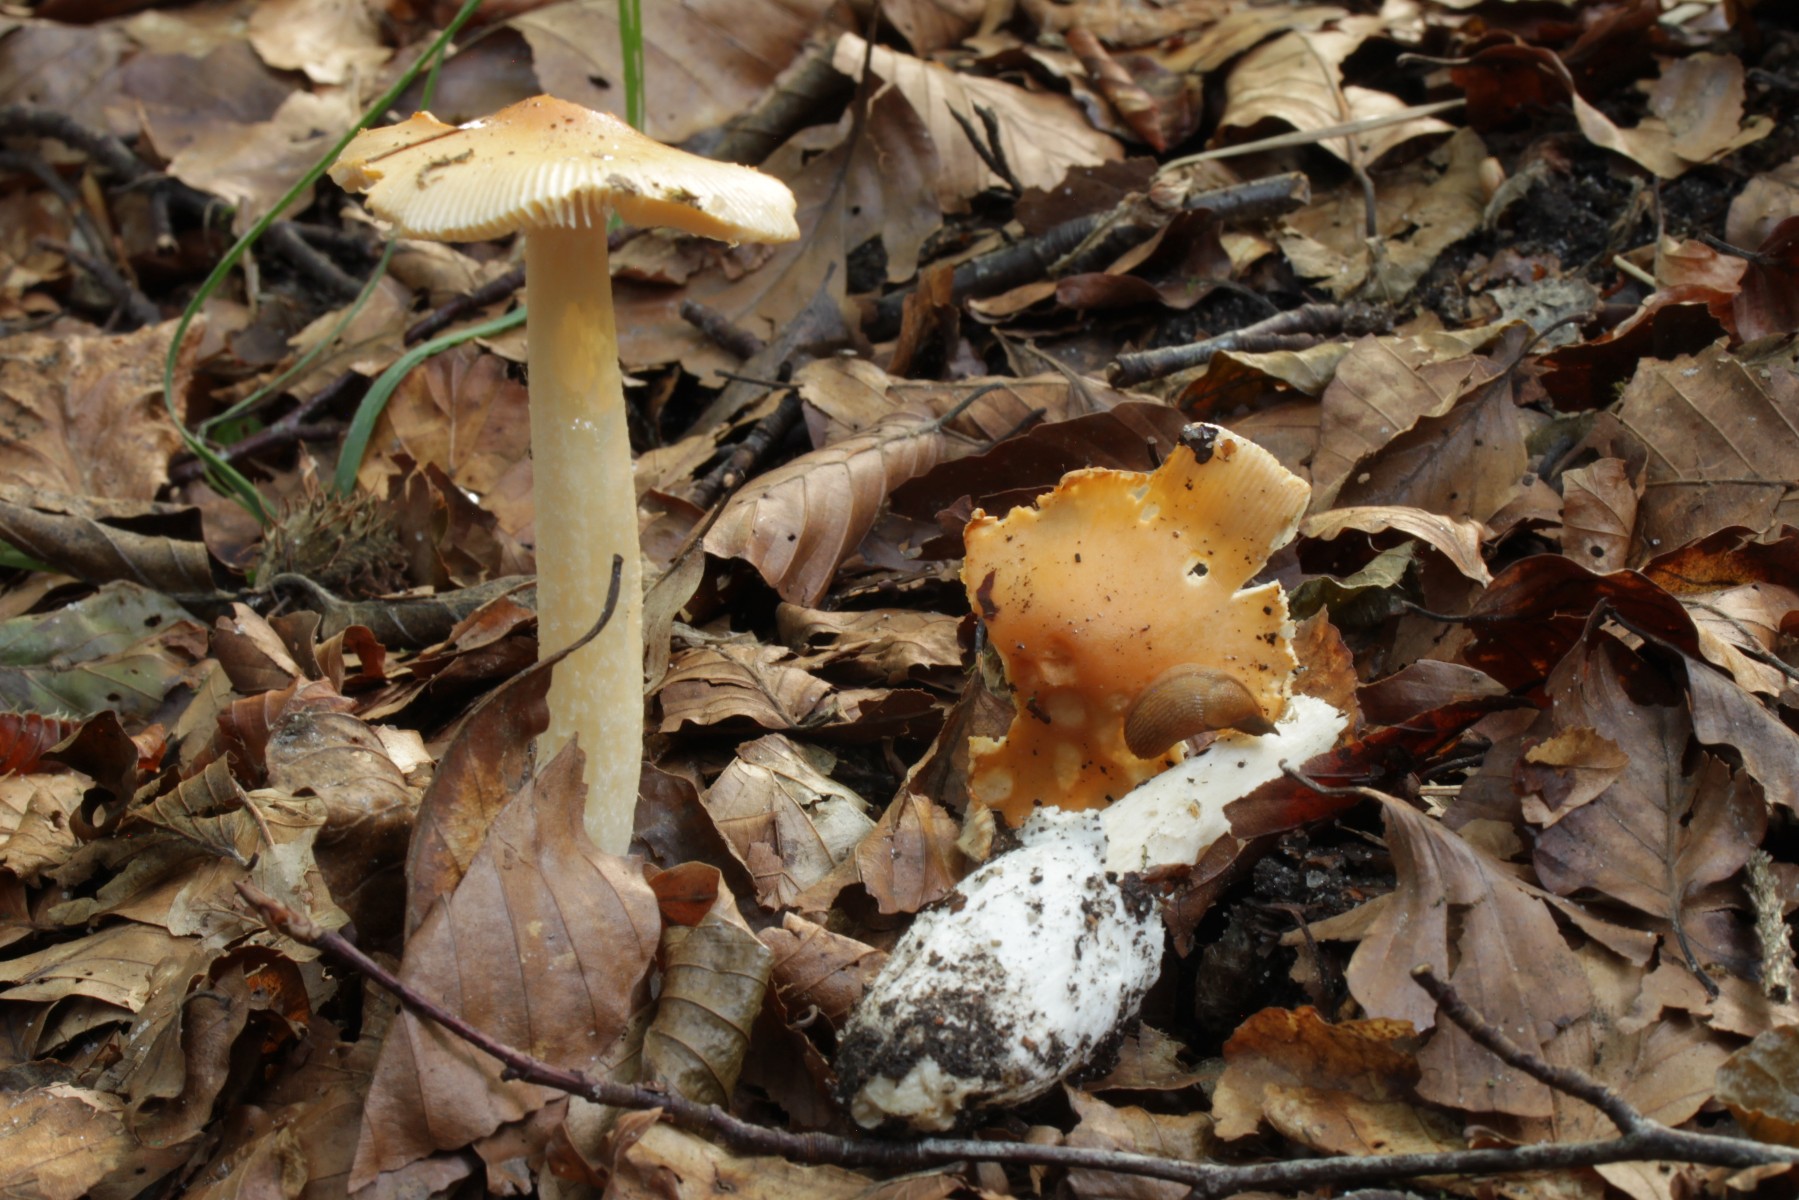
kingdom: Fungi
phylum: Basidiomycota
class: Agaricomycetes
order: Agaricales
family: Amanitaceae
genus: Amanita
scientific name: Amanita crocea
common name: gylden kam-fluesvamp
